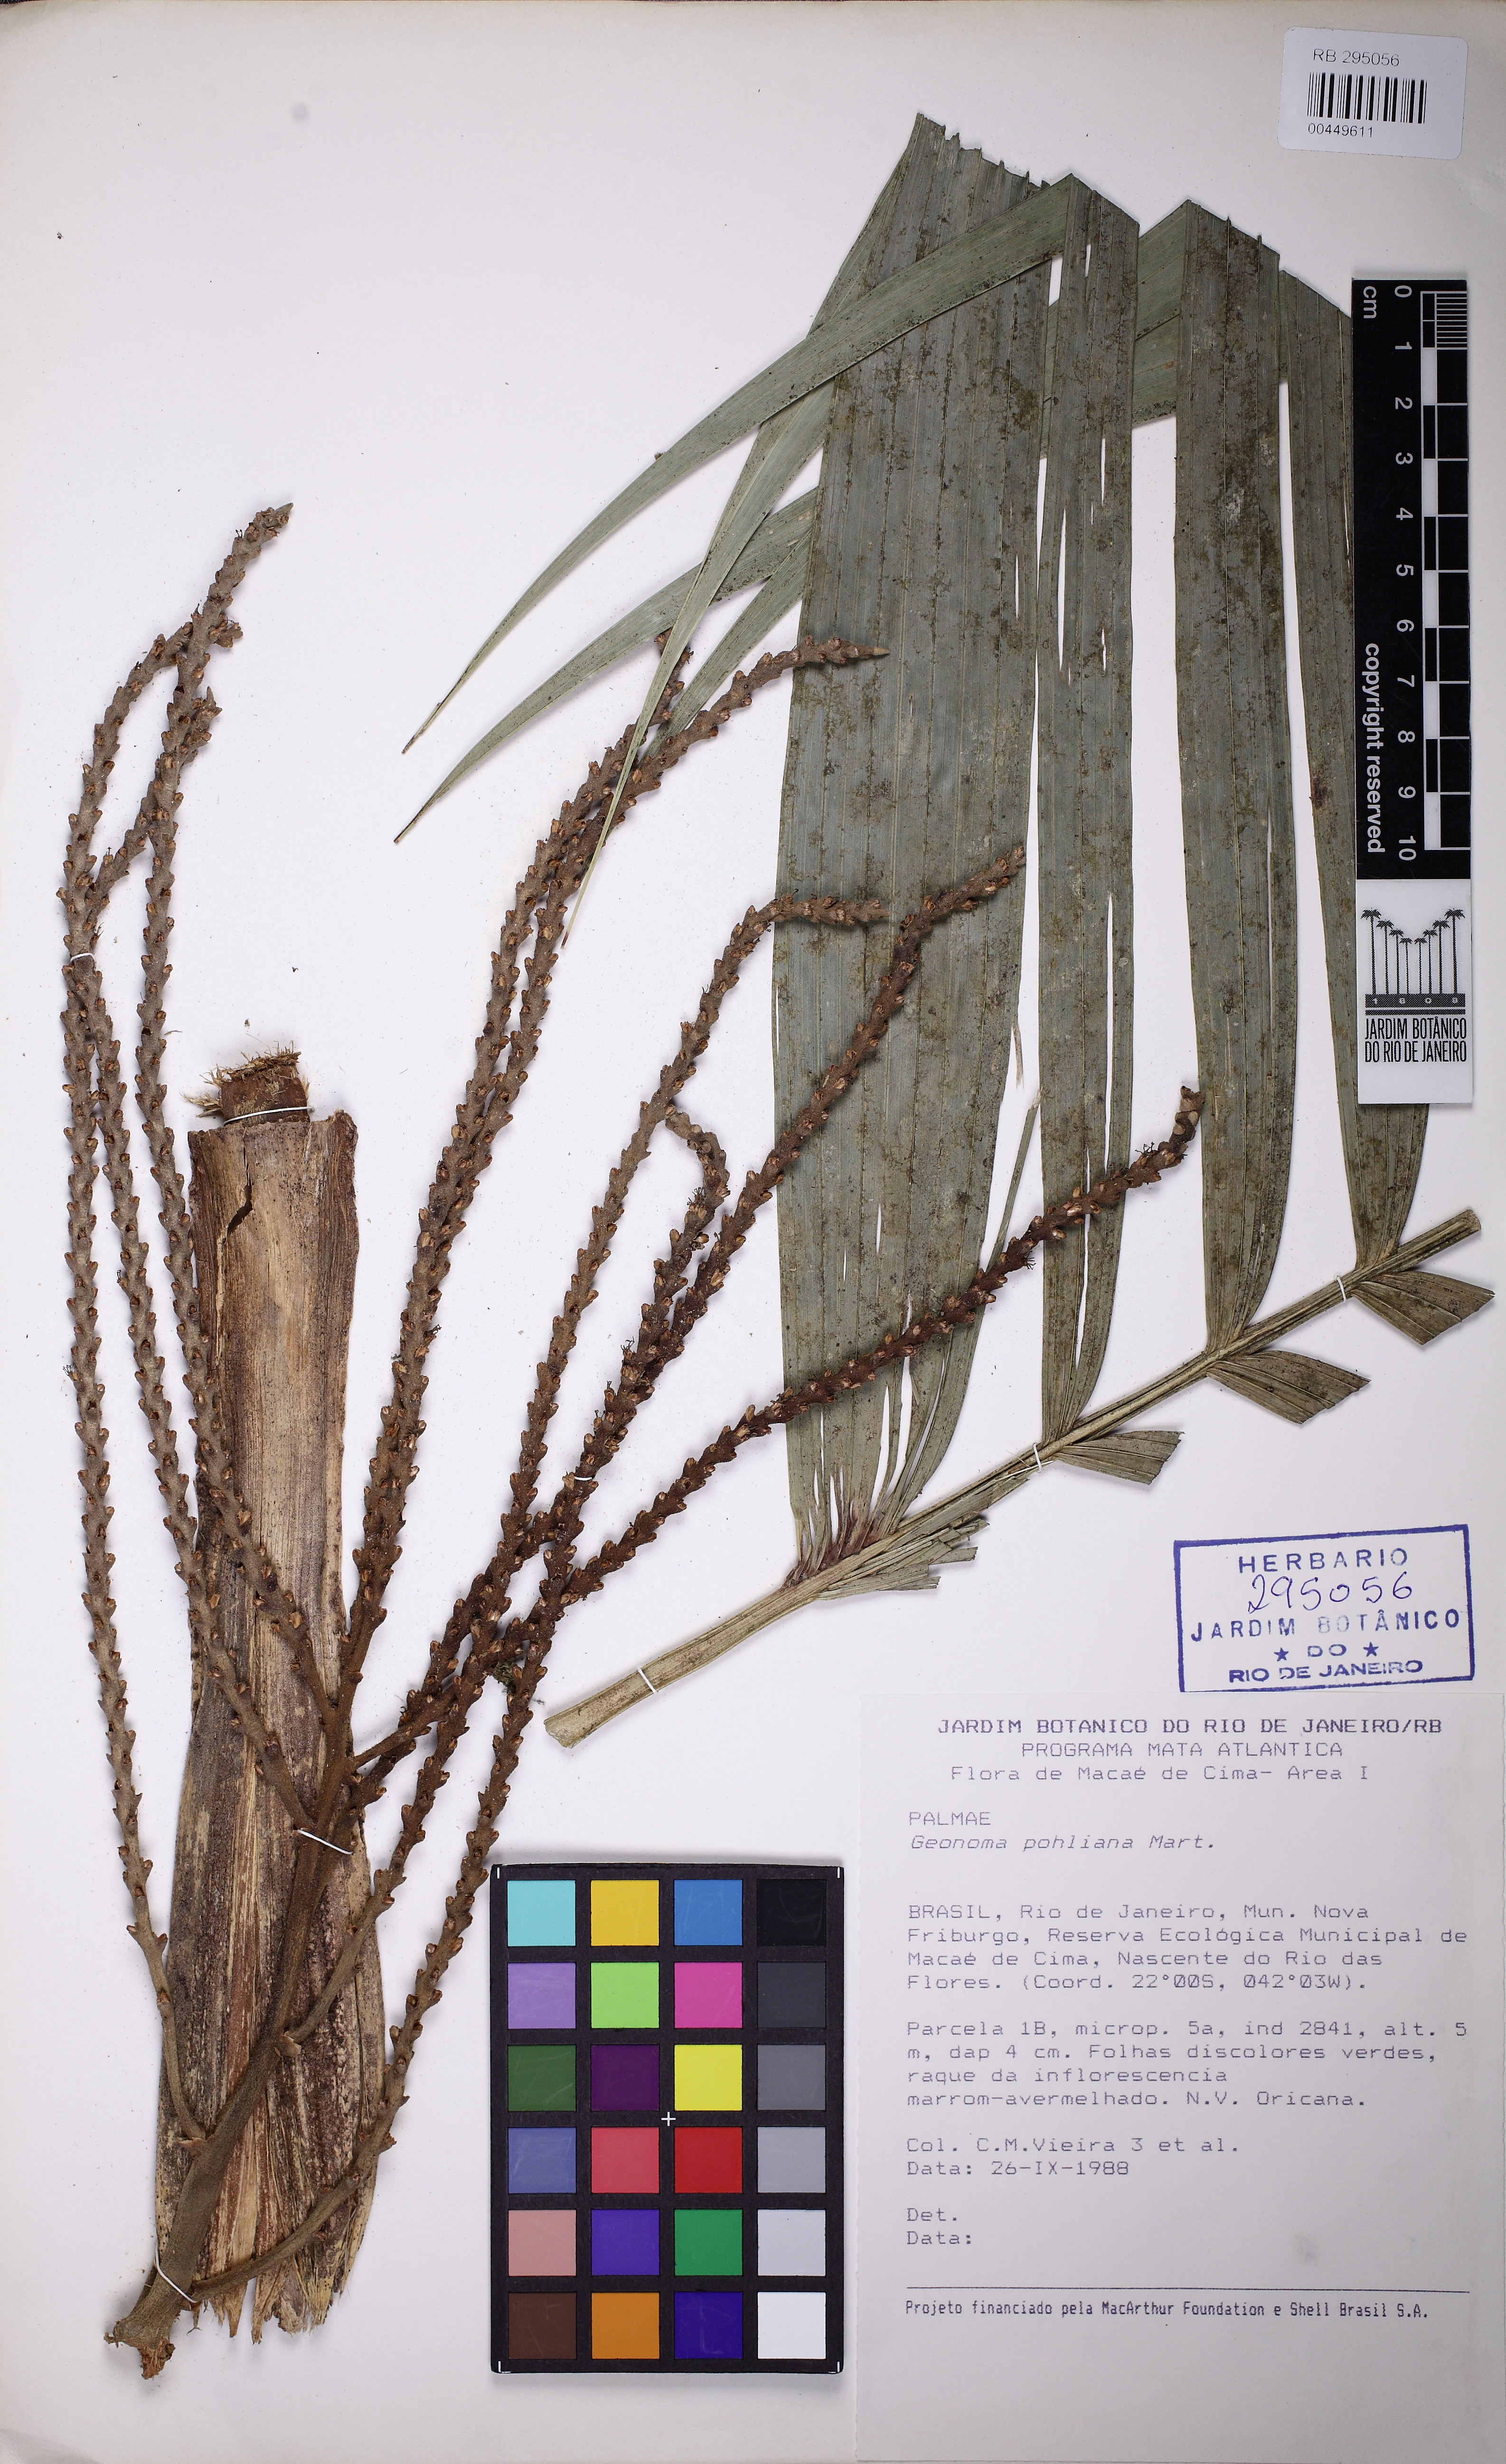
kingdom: Plantae
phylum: Tracheophyta
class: Liliopsida
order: Arecales
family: Arecaceae
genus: Geonoma
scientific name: Geonoma pohliana
